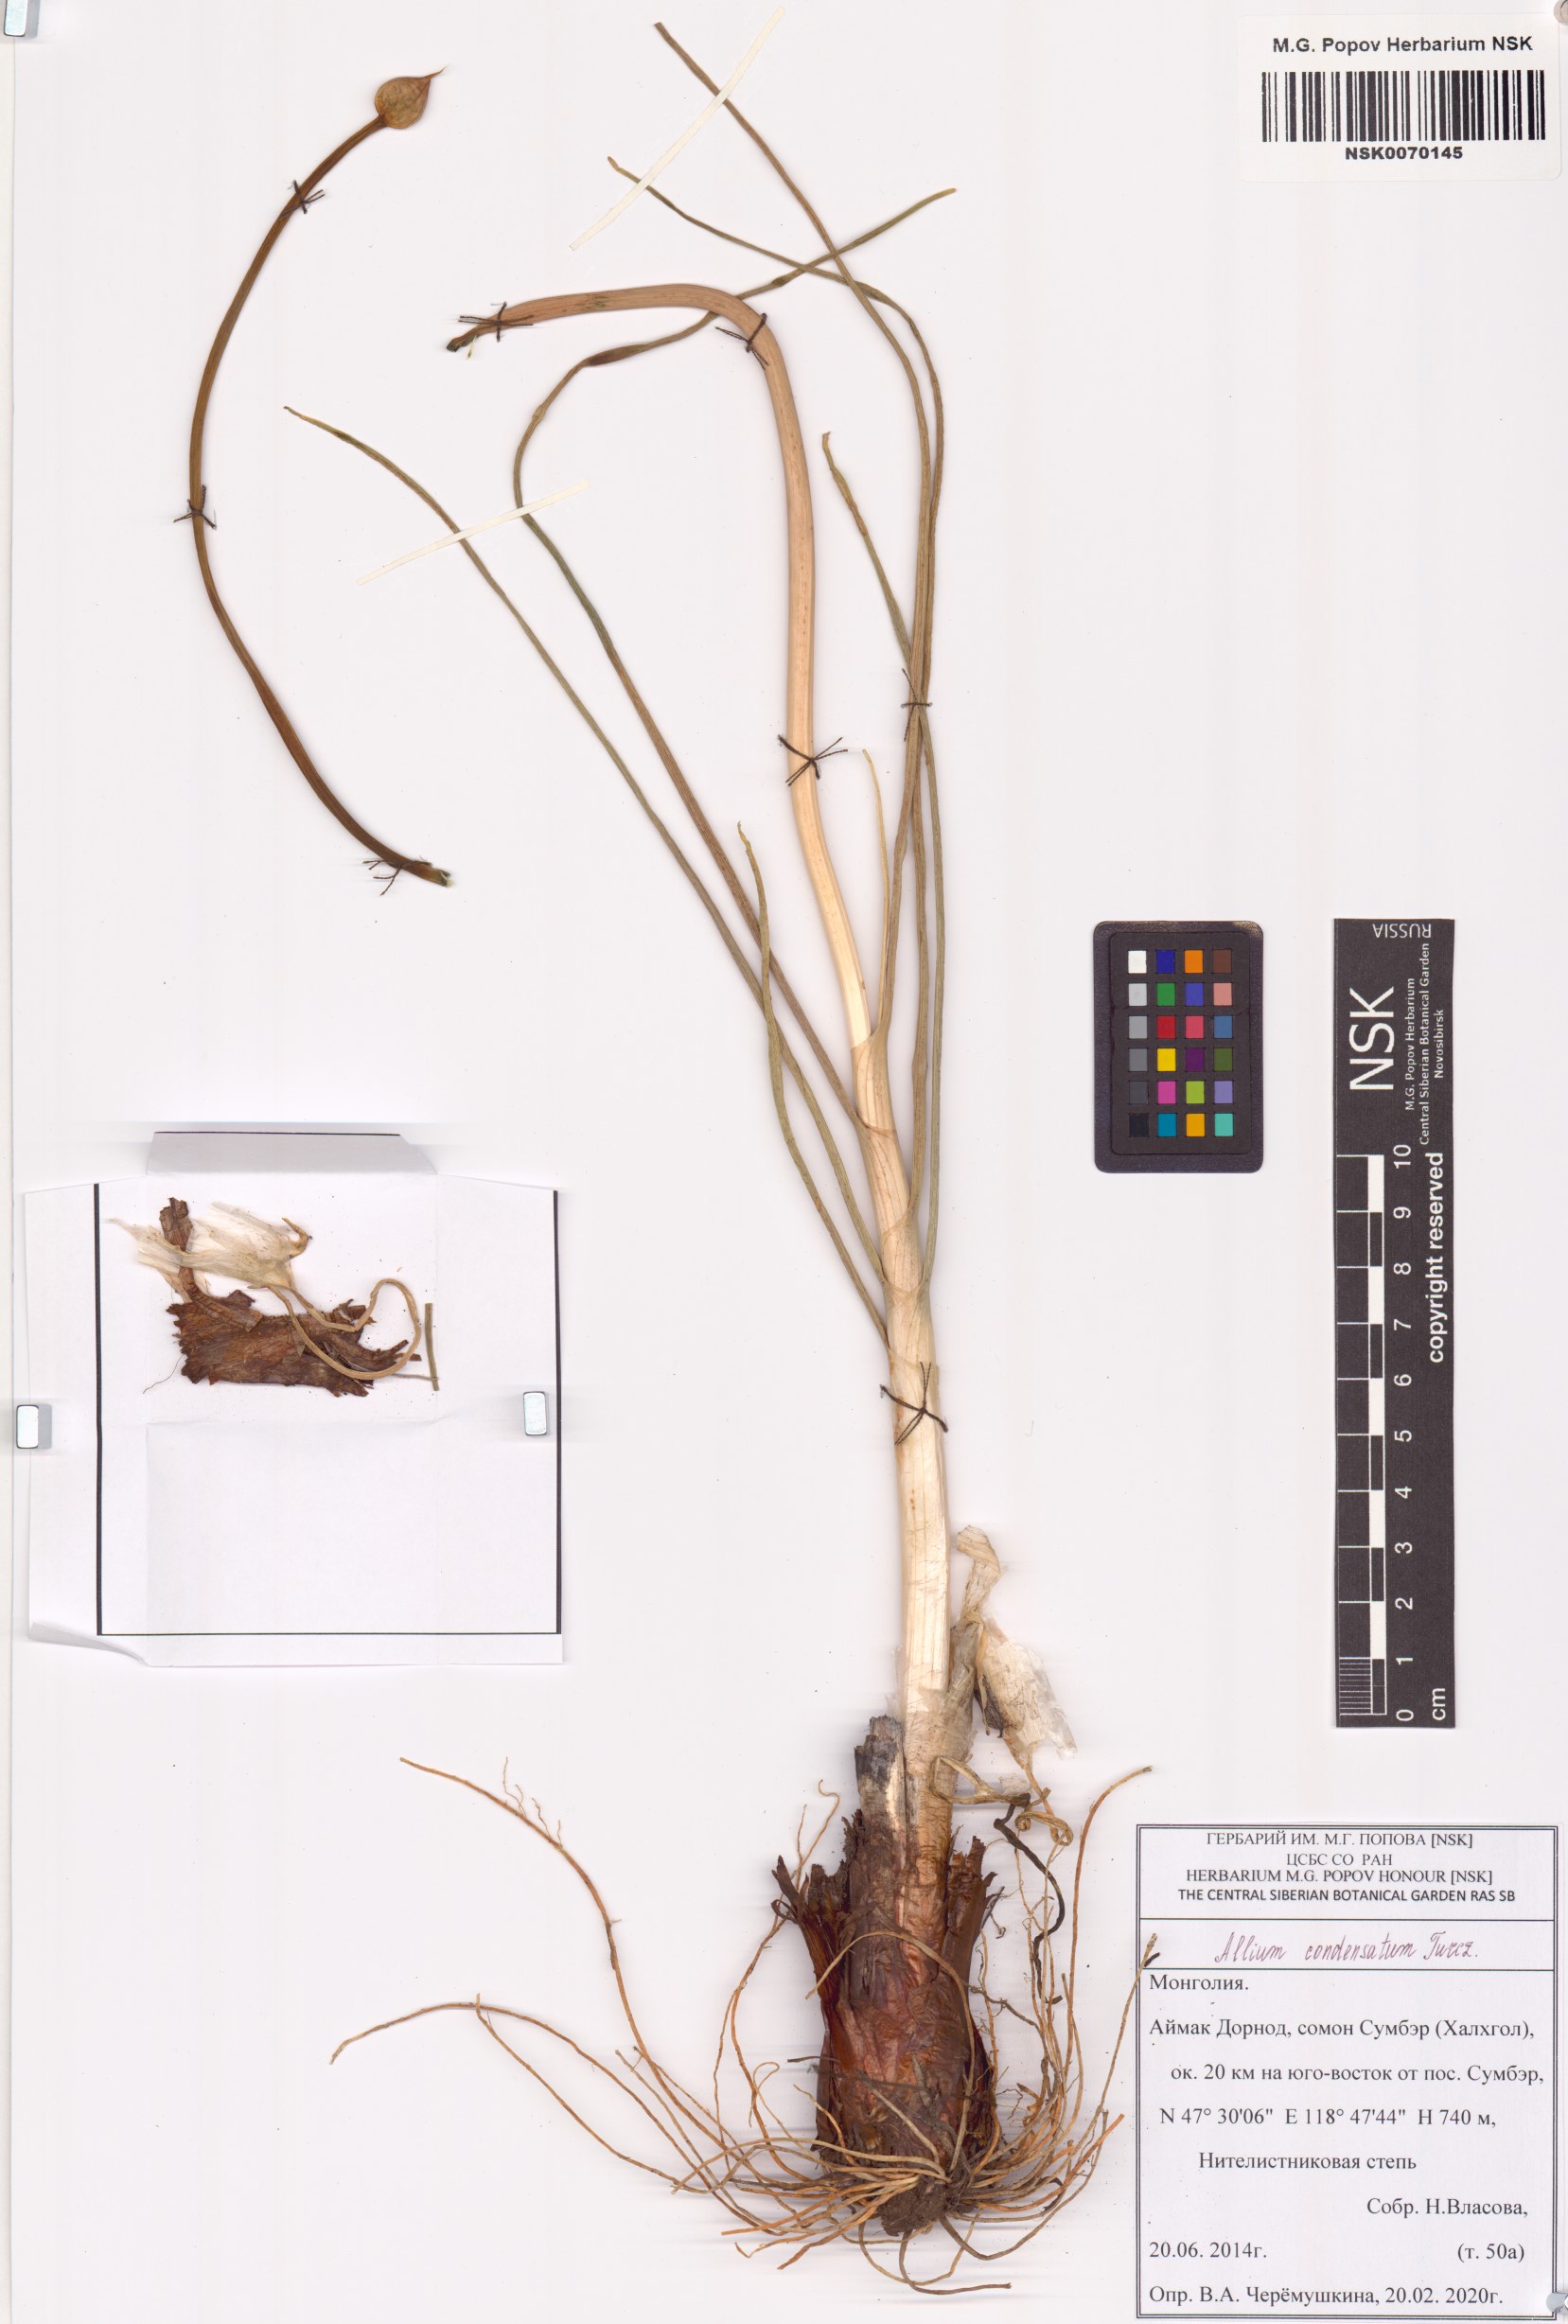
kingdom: Plantae
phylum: Tracheophyta
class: Liliopsida
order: Asparagales
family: Amaryllidaceae
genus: Allium
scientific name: Allium condensatum
